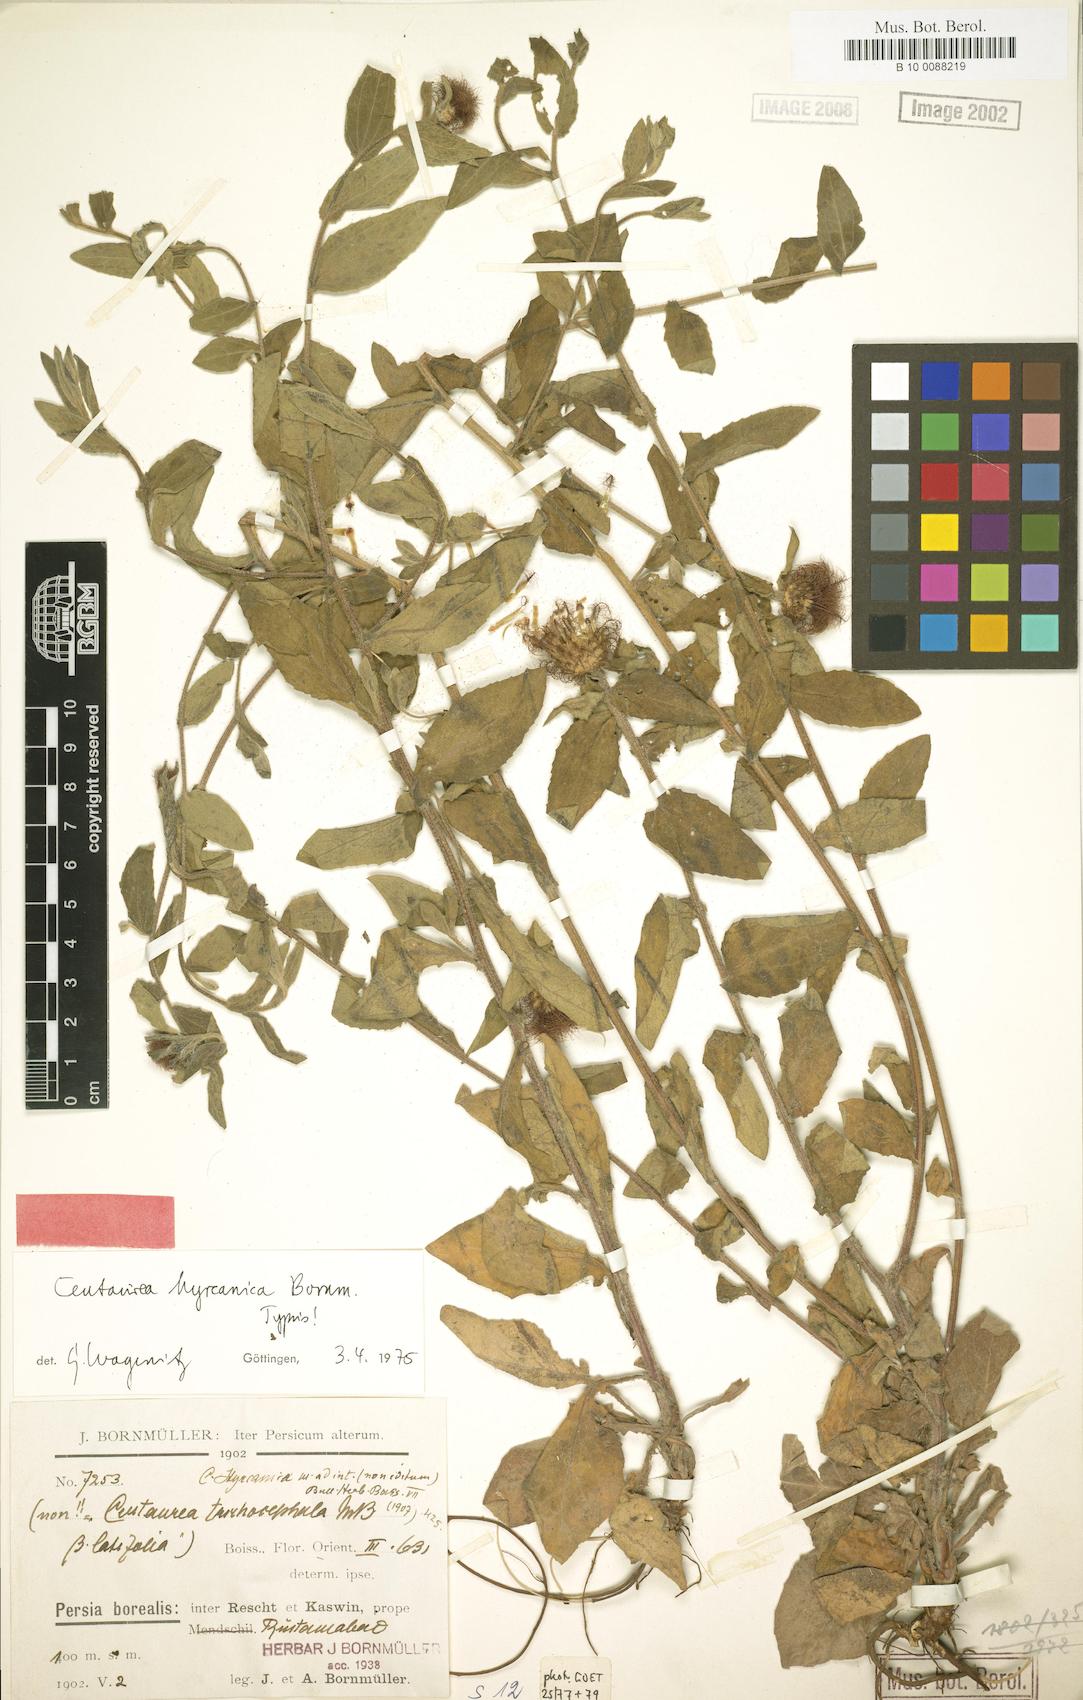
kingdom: Plantae
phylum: Tracheophyta
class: Magnoliopsida
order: Asterales
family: Asteraceae
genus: Centaurea
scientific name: Centaurea hyrcanica
